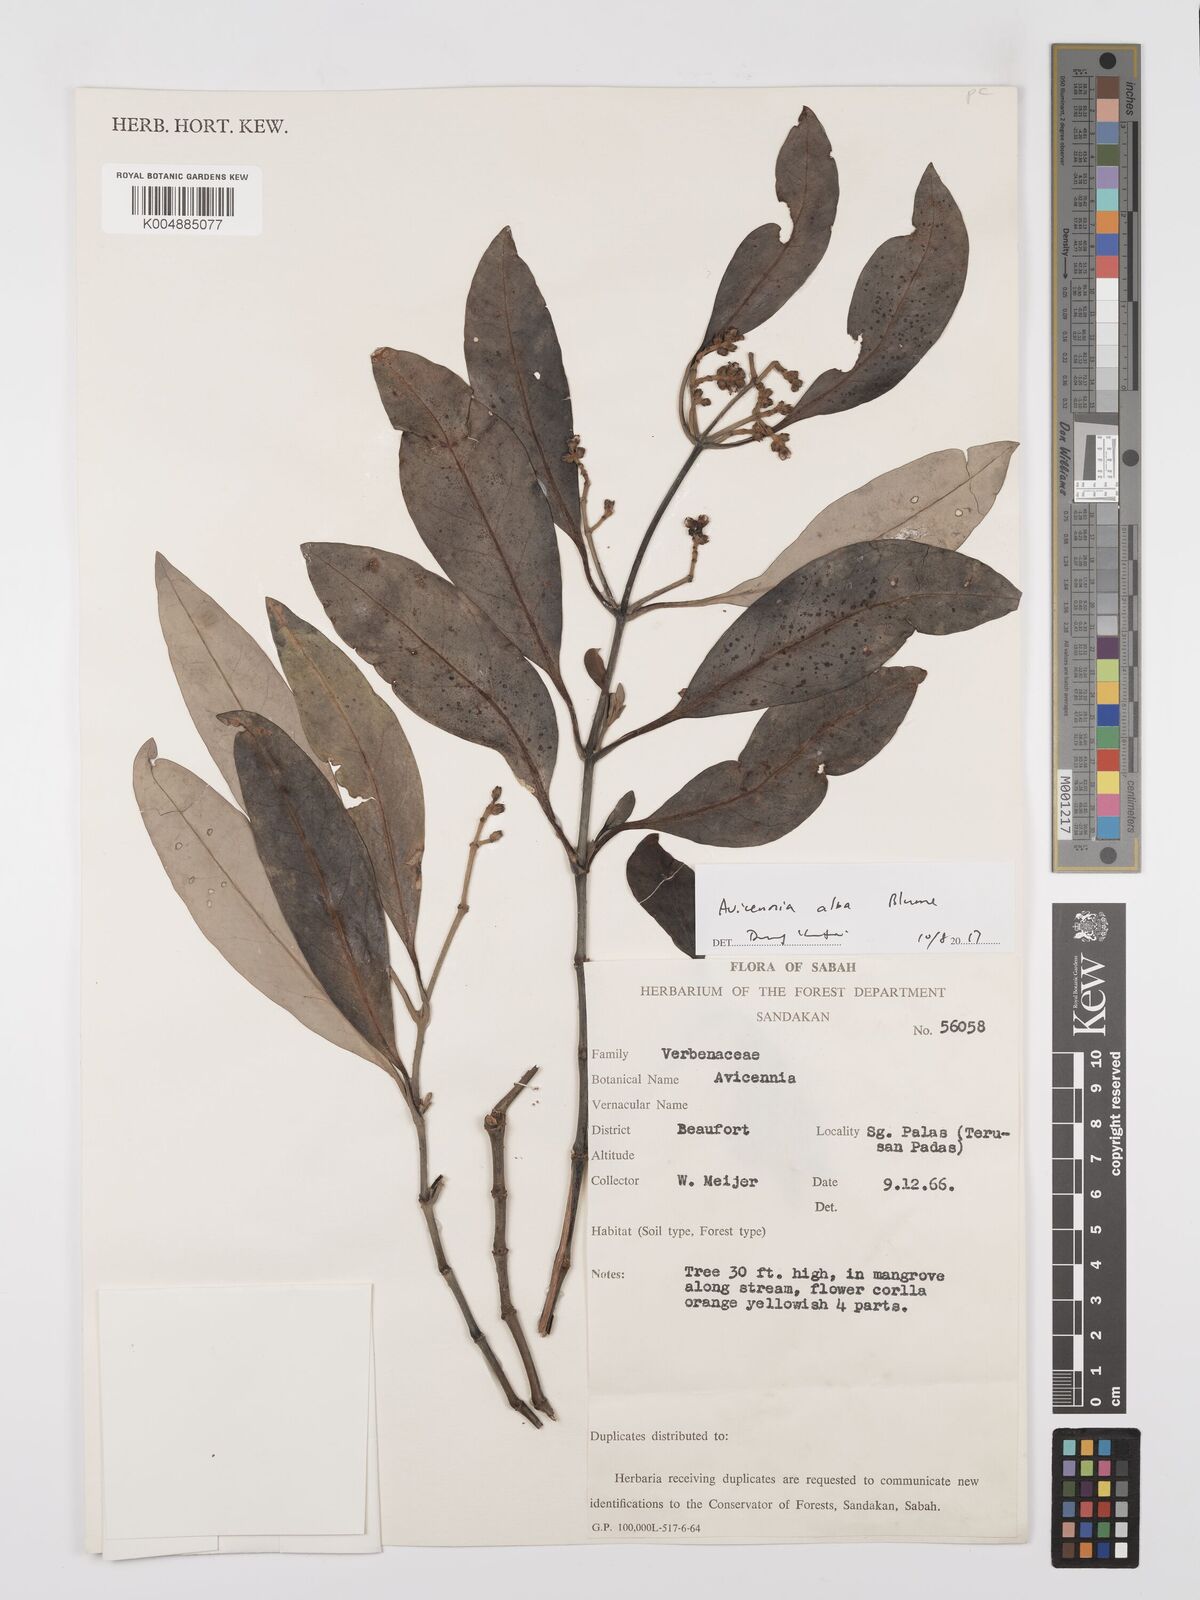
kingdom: Plantae
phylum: Tracheophyta
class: Magnoliopsida
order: Lamiales
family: Acanthaceae
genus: Avicennia
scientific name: Avicennia alba
